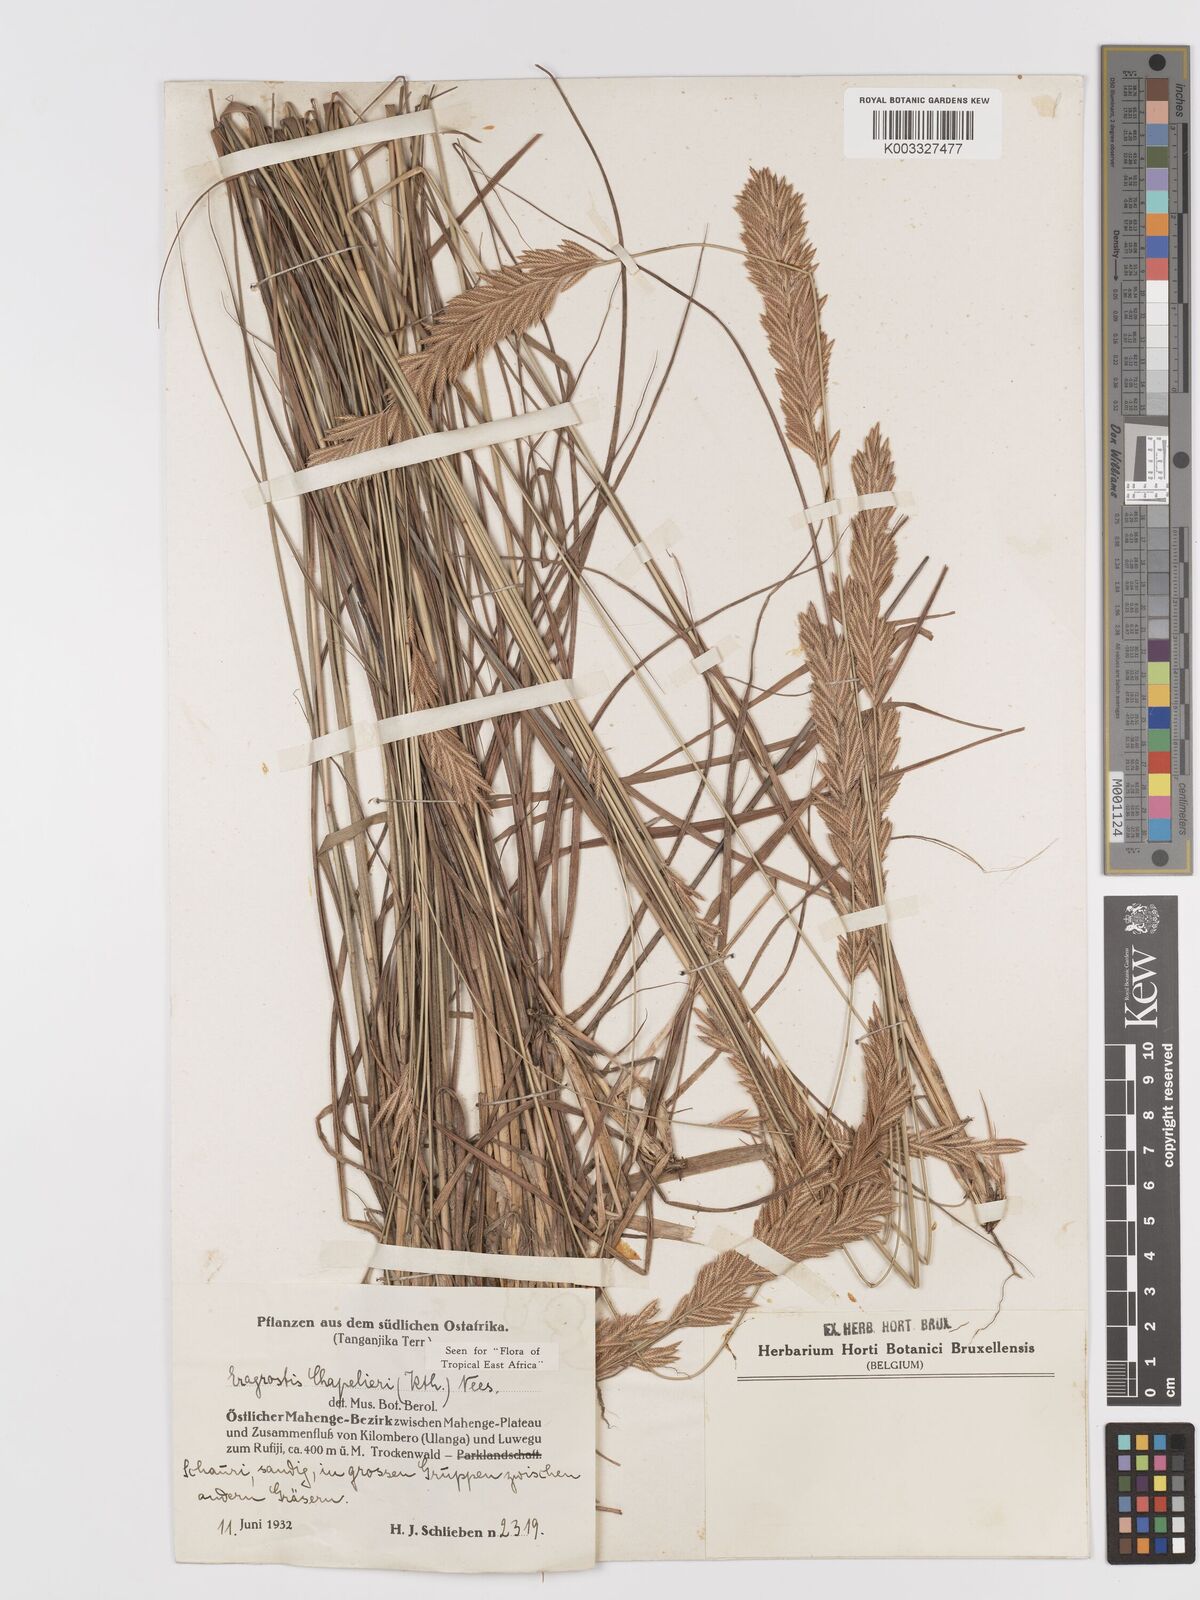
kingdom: Plantae
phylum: Tracheophyta
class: Liliopsida
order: Poales
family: Poaceae
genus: Eragrostis
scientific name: Eragrostis chapelieri
